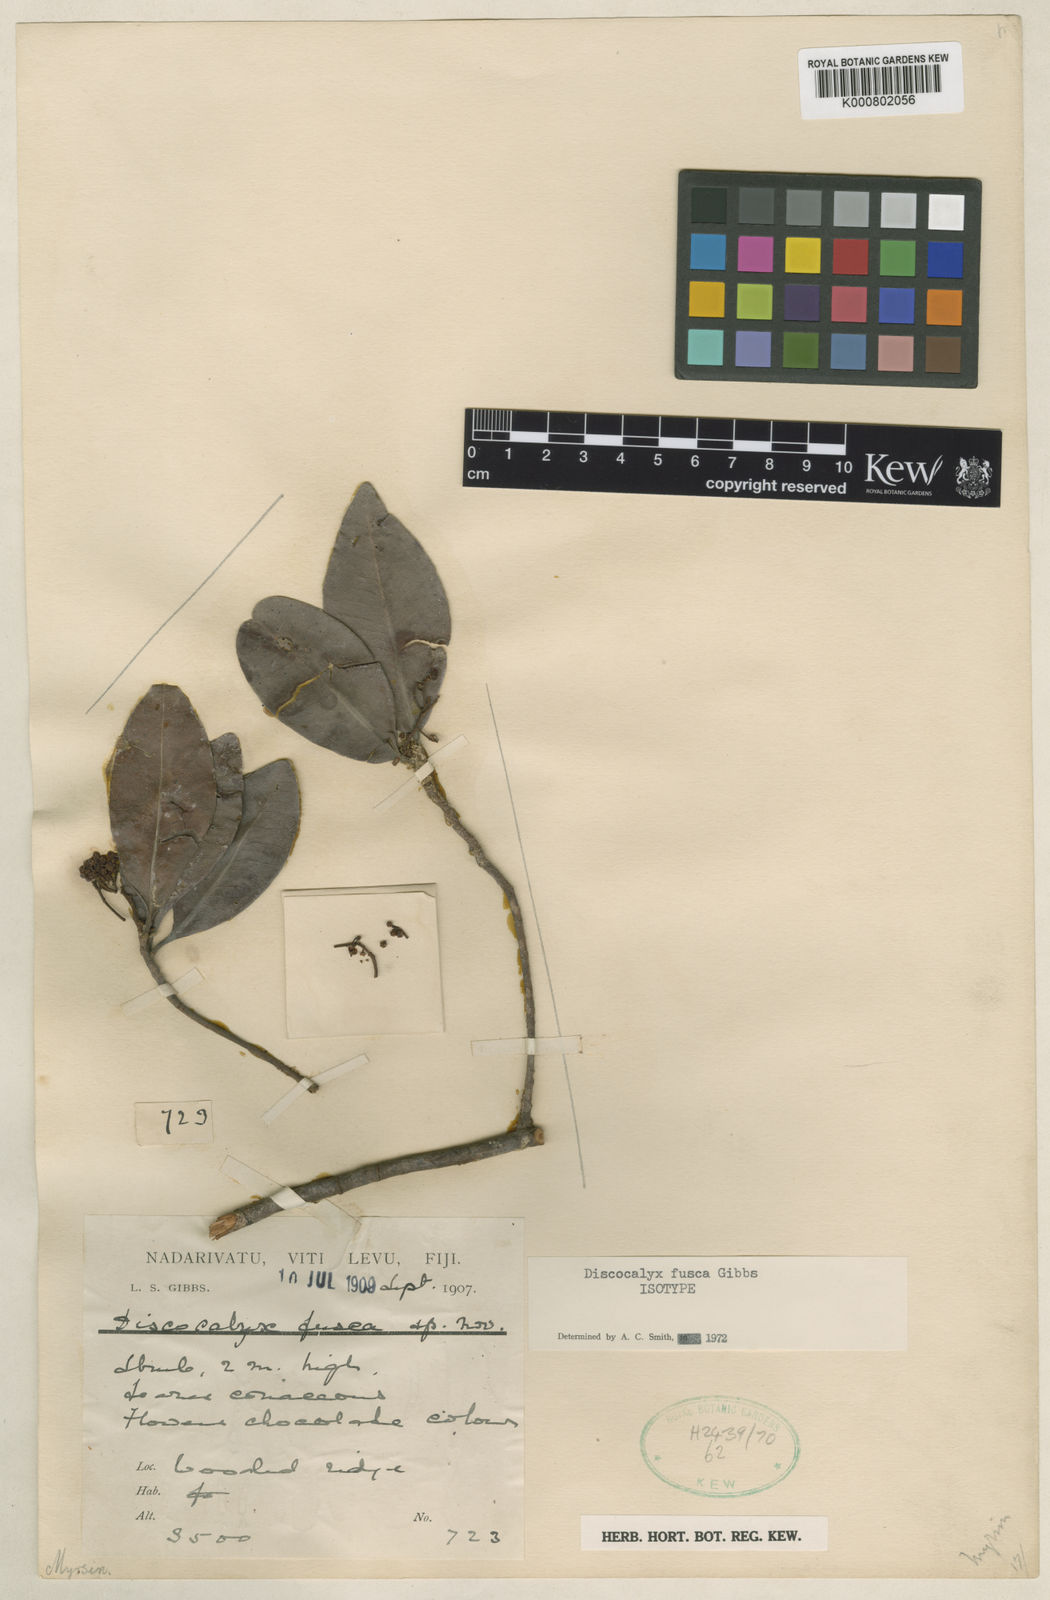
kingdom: Plantae
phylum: Tracheophyta
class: Magnoliopsida
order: Ericales
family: Primulaceae
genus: Discocalyx
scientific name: Discocalyx fusca
